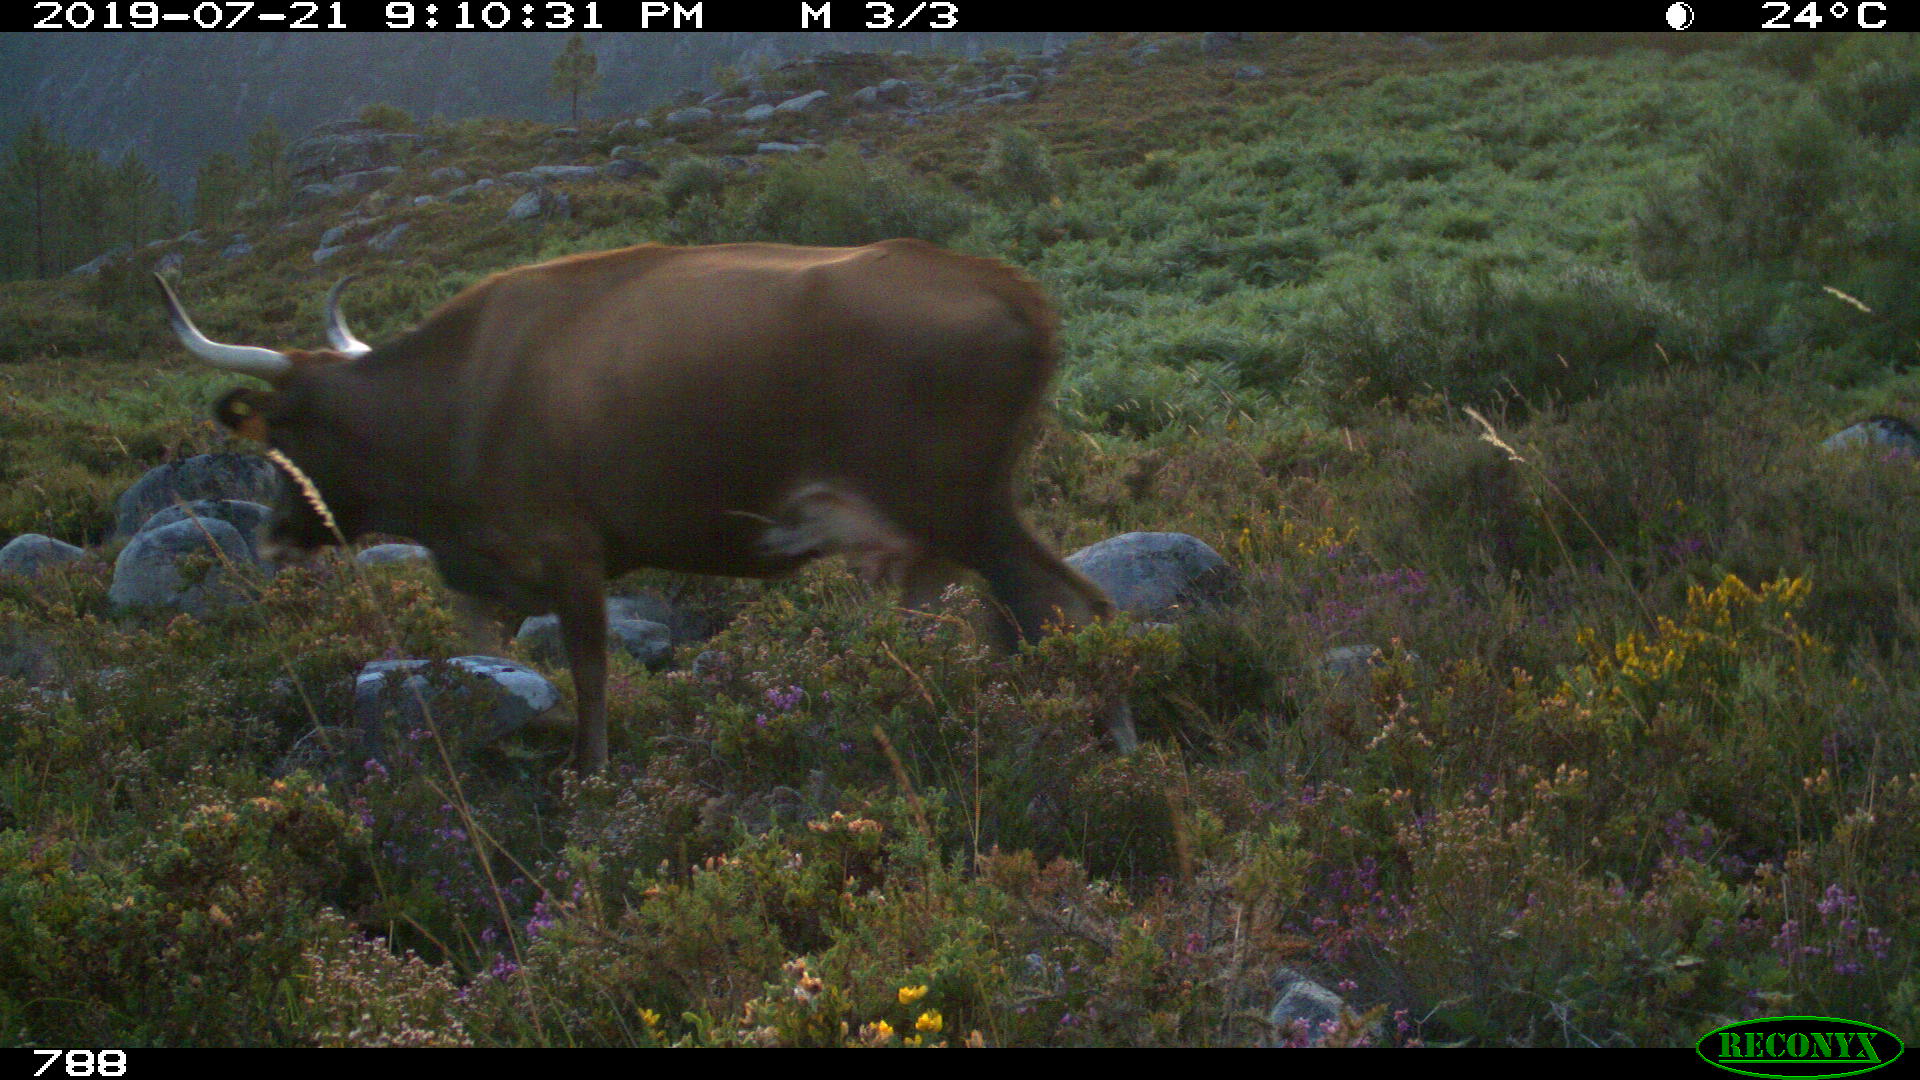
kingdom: Animalia
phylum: Chordata
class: Mammalia
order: Artiodactyla
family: Bovidae
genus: Bos
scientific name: Bos taurus
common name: Domesticated cattle
